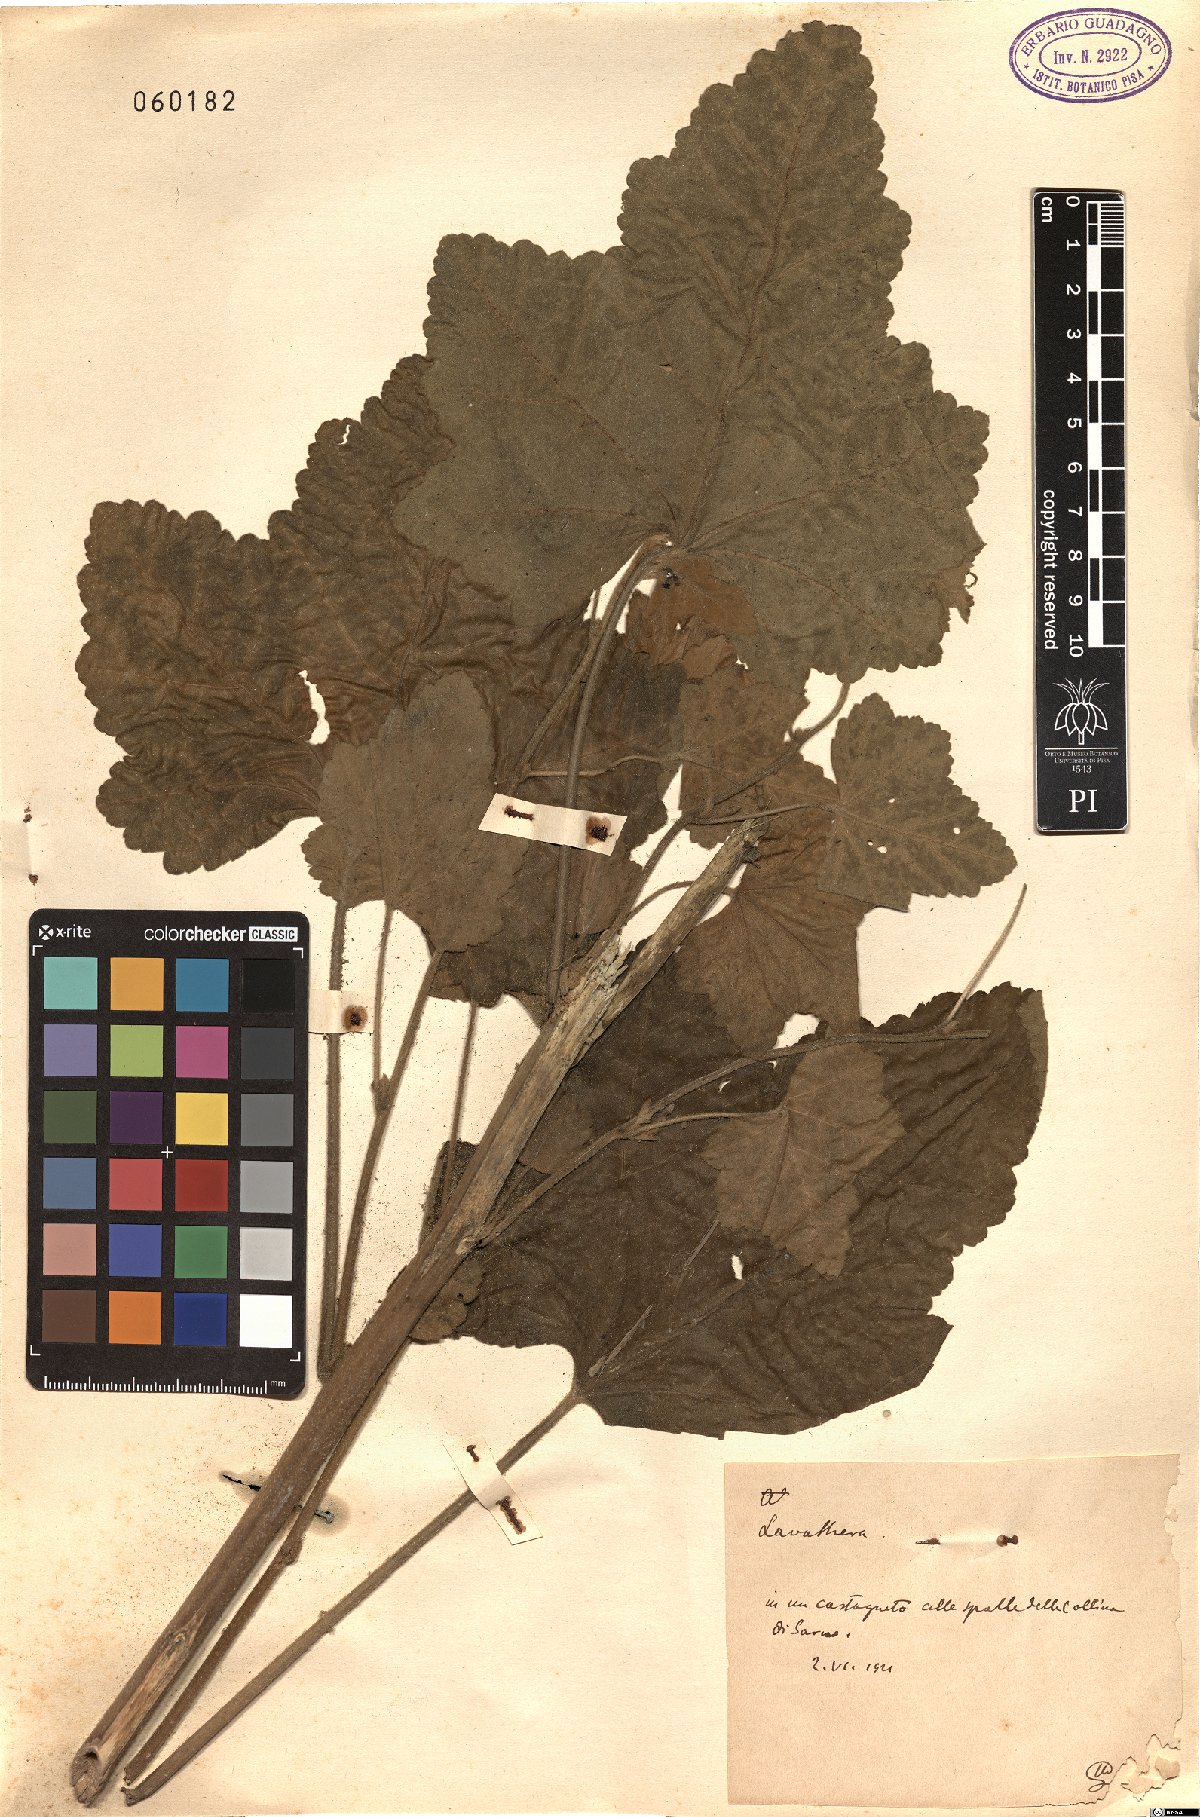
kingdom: Plantae
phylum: Tracheophyta
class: Magnoliopsida
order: Malvales
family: Malvaceae
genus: Malva
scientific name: Malva
